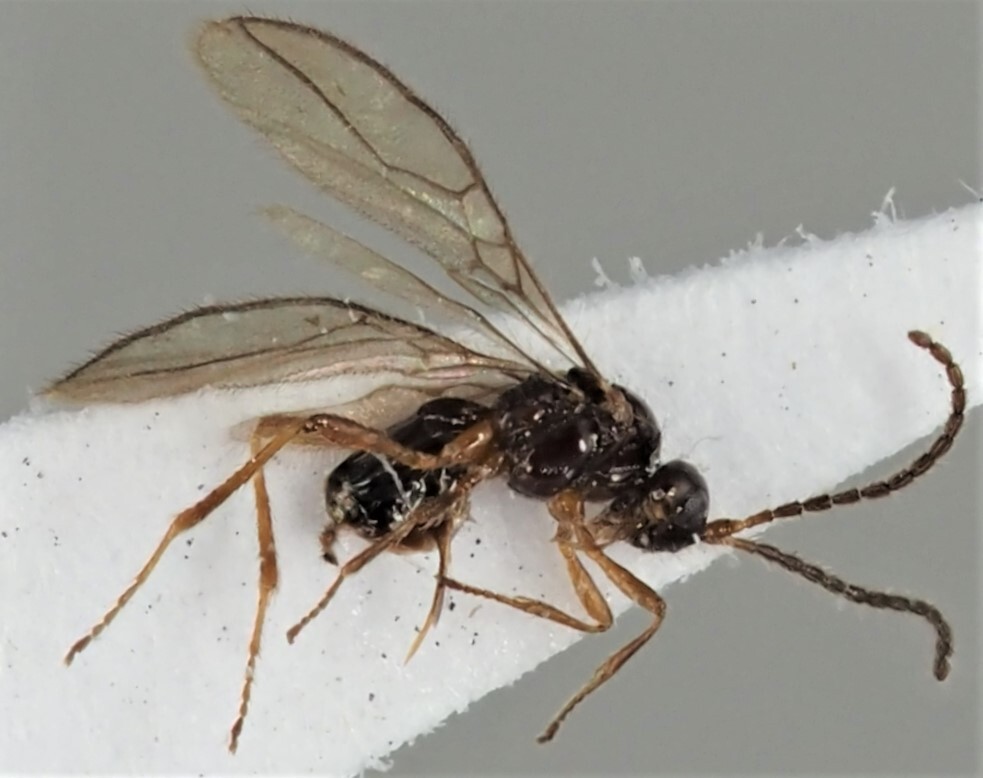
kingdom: Animalia
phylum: Arthropoda
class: Insecta
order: Hymenoptera
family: Braconidae
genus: Dinotrema
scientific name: Dinotrema lagunasense
